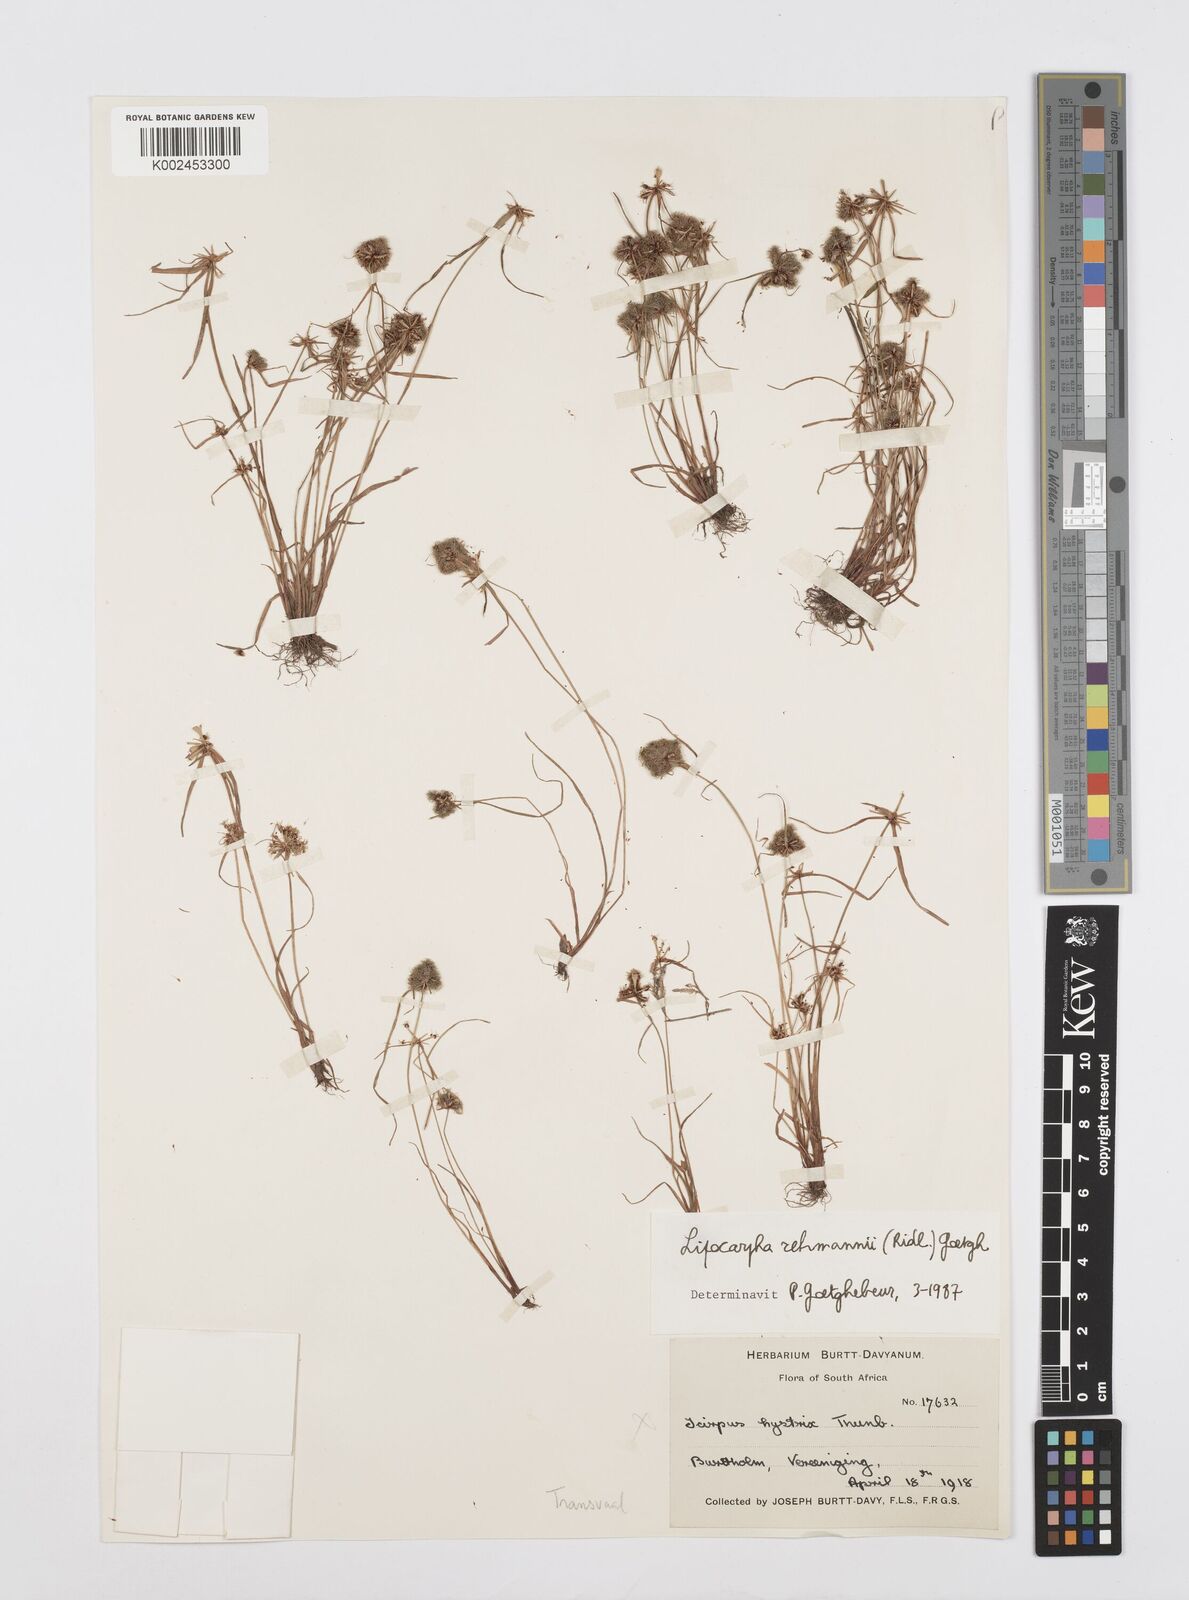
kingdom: Plantae
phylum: Tracheophyta
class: Liliopsida
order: Poales
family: Cyperaceae
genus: Cyperus
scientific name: Cyperus sanguinolentus
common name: Purpleglume flatsedge
